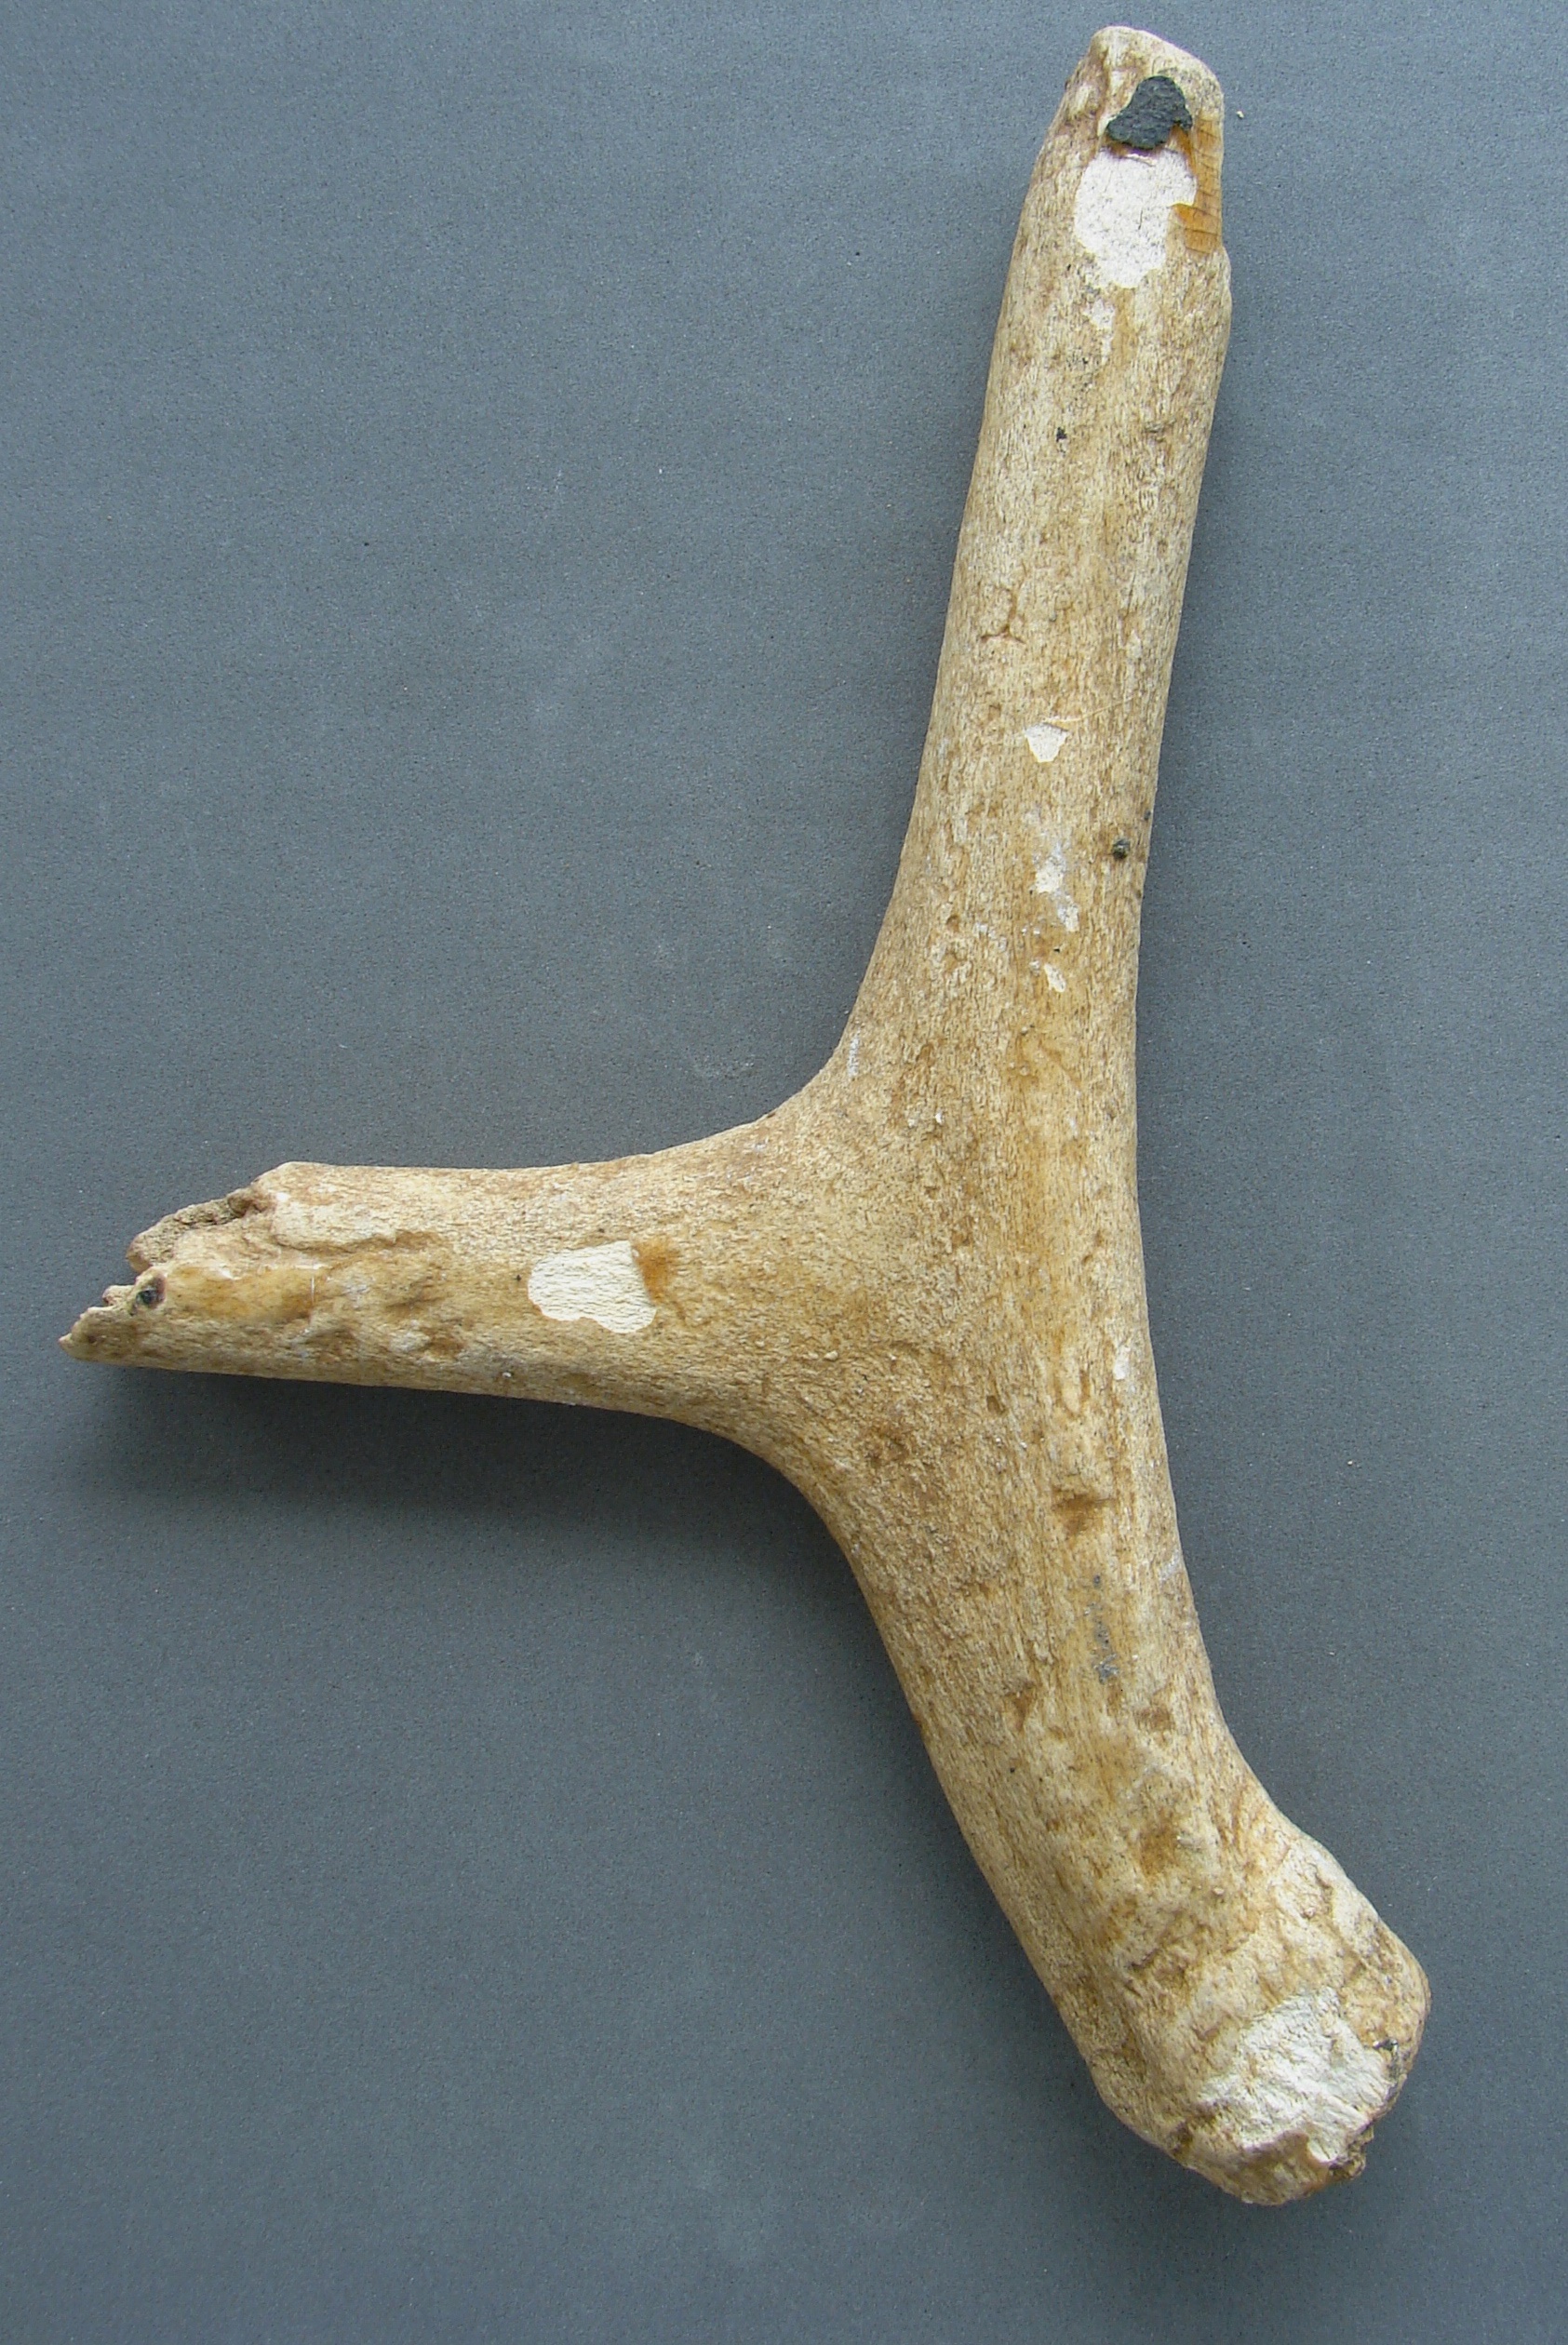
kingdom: Animalia
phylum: Chordata
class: Mammalia
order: Artiodactyla
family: Cervidae
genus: Rangifer
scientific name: Rangifer tarandus
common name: Reindeer
